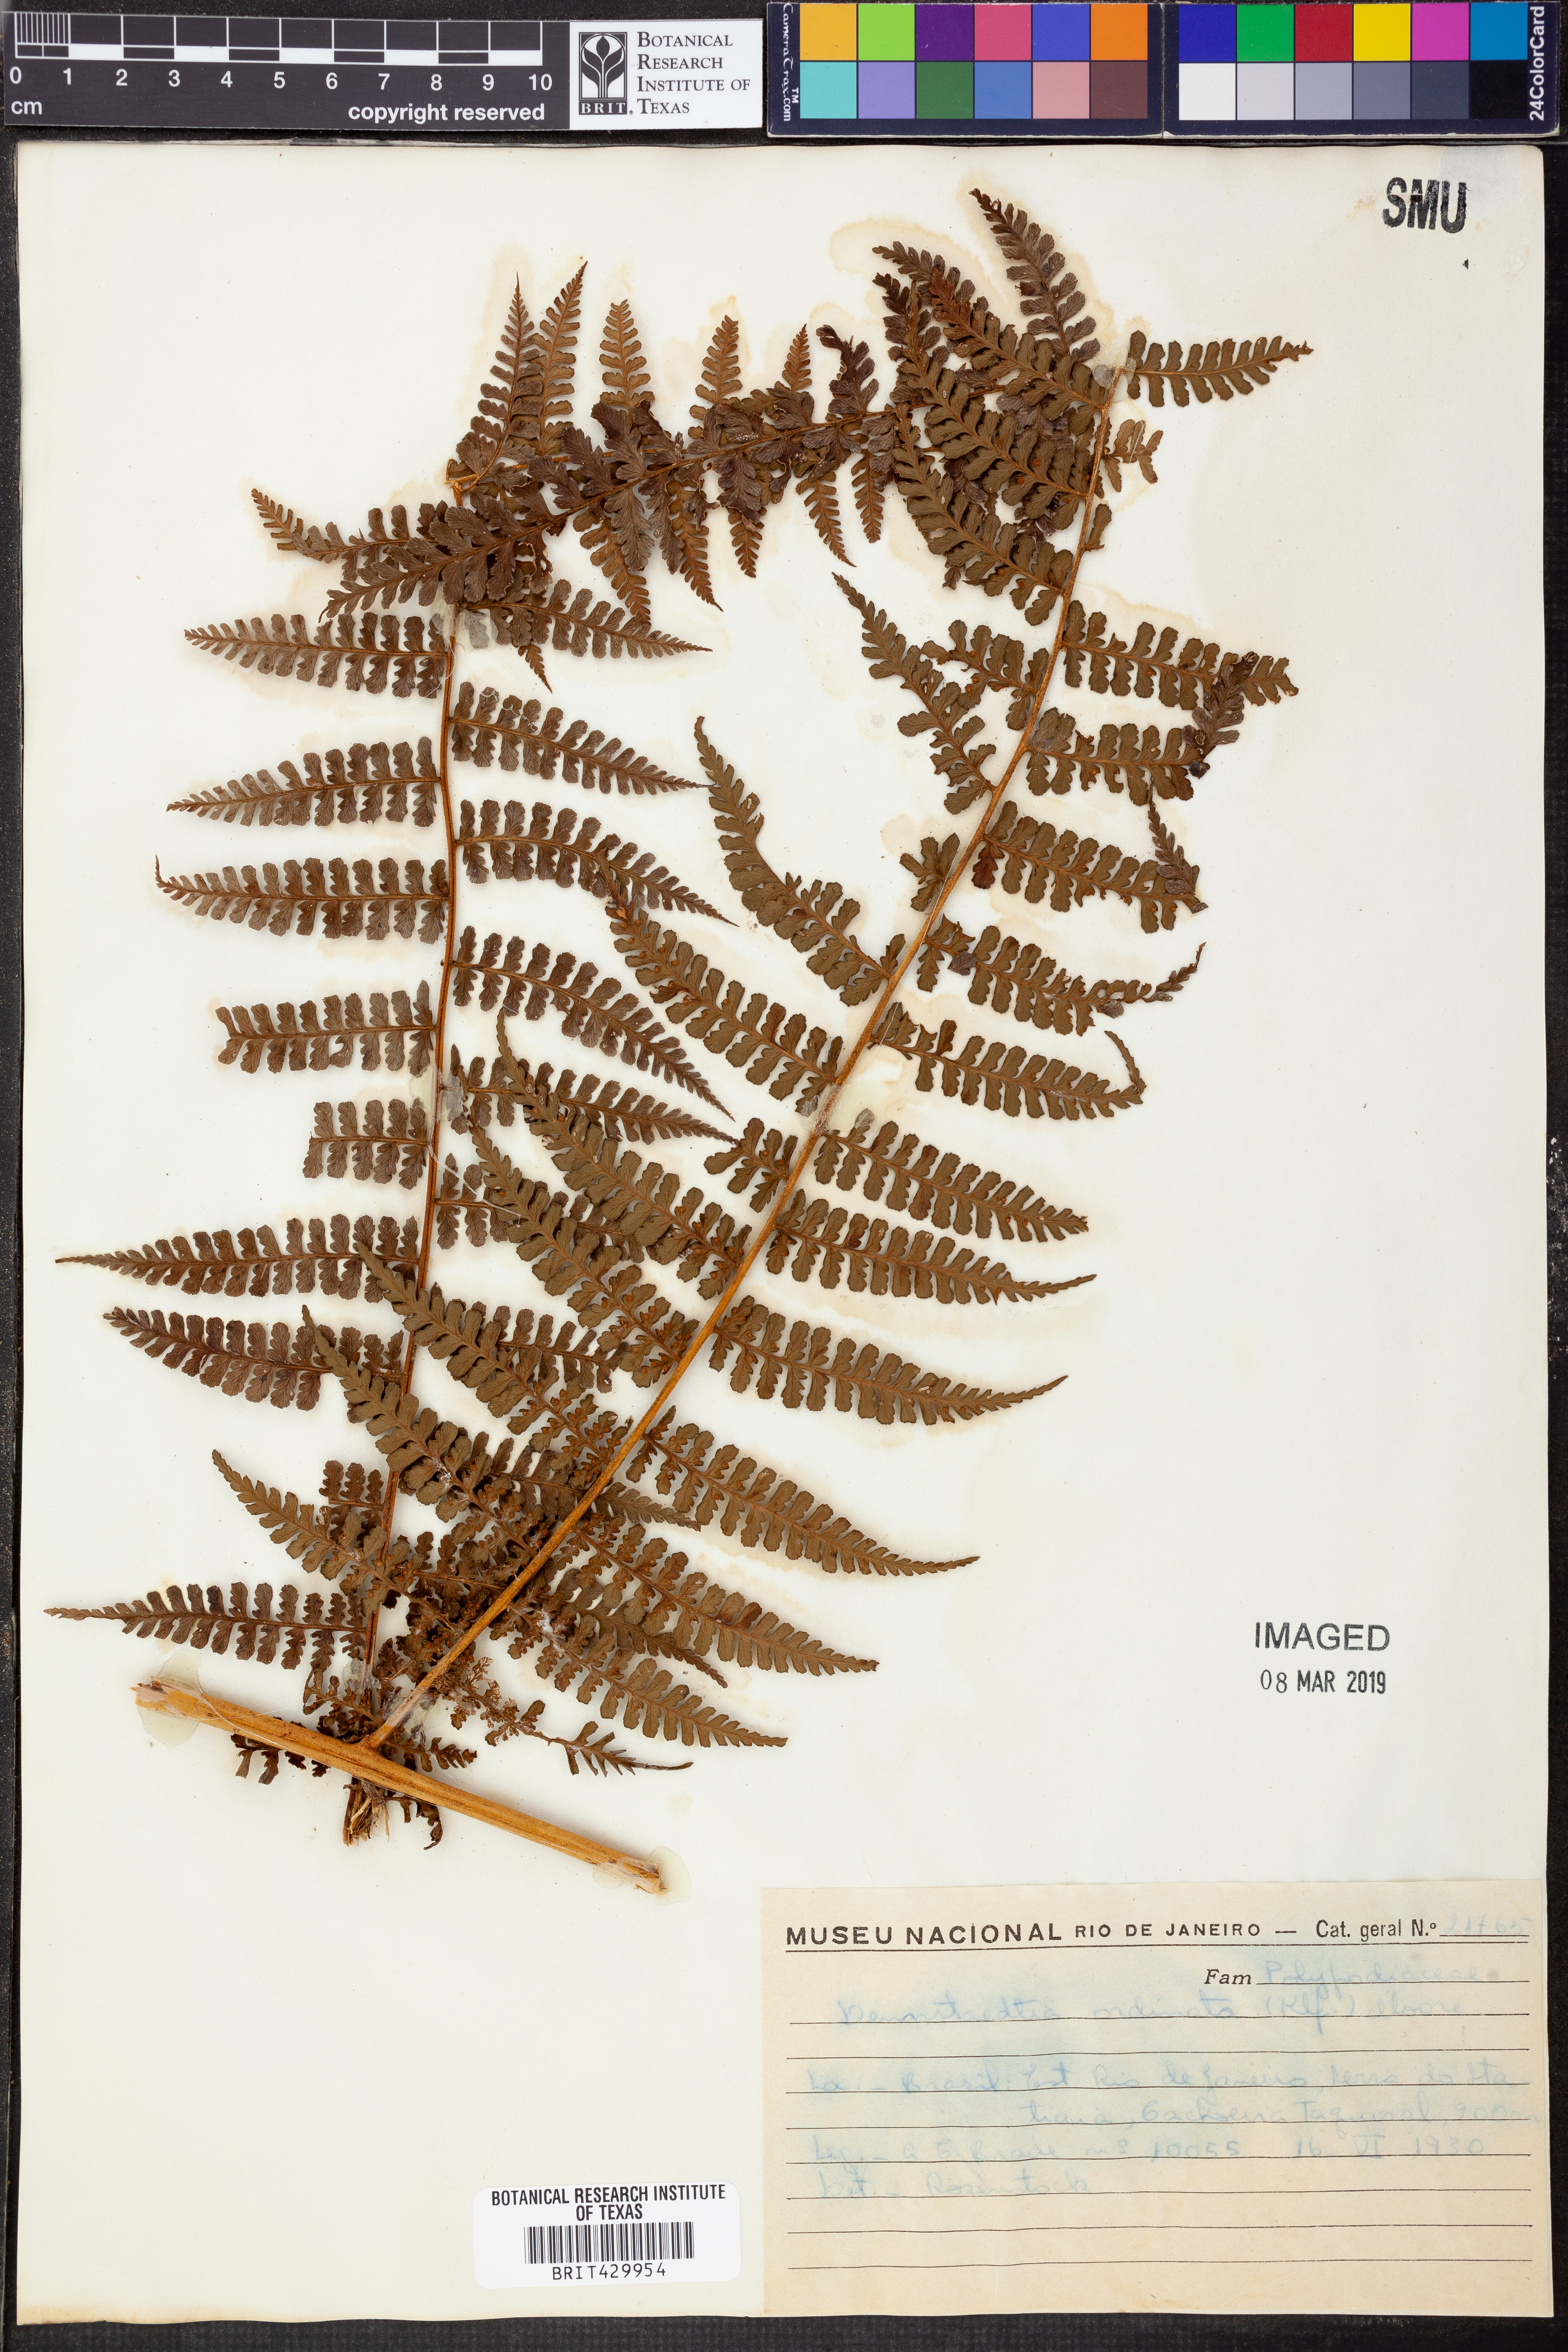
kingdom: Plantae
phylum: Tracheophyta
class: Polypodiopsida
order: Polypodiales
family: Dennstaedtiaceae
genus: Dennstaedtia
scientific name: Dennstaedtia obtusifolia
